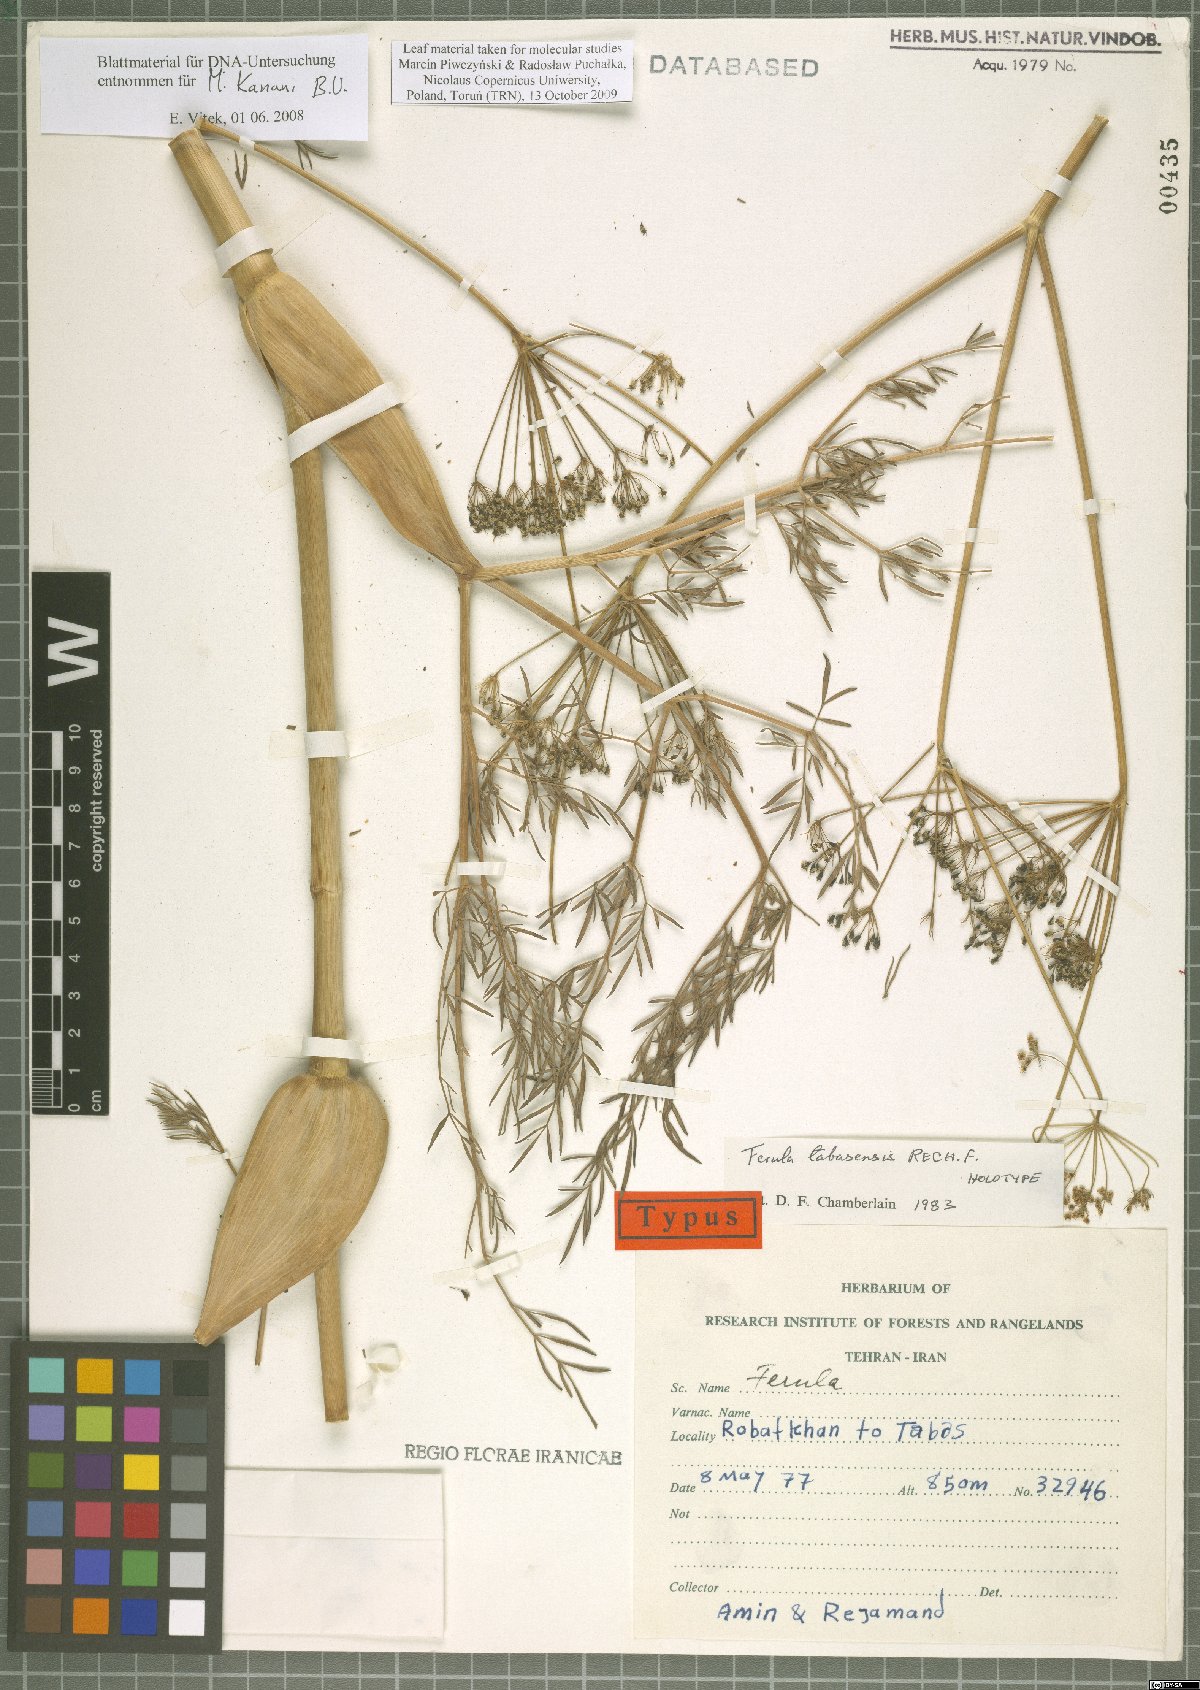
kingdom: Plantae
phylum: Tracheophyta
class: Magnoliopsida
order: Apiales
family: Apiaceae
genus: Ferula
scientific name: Ferula tabasensis
